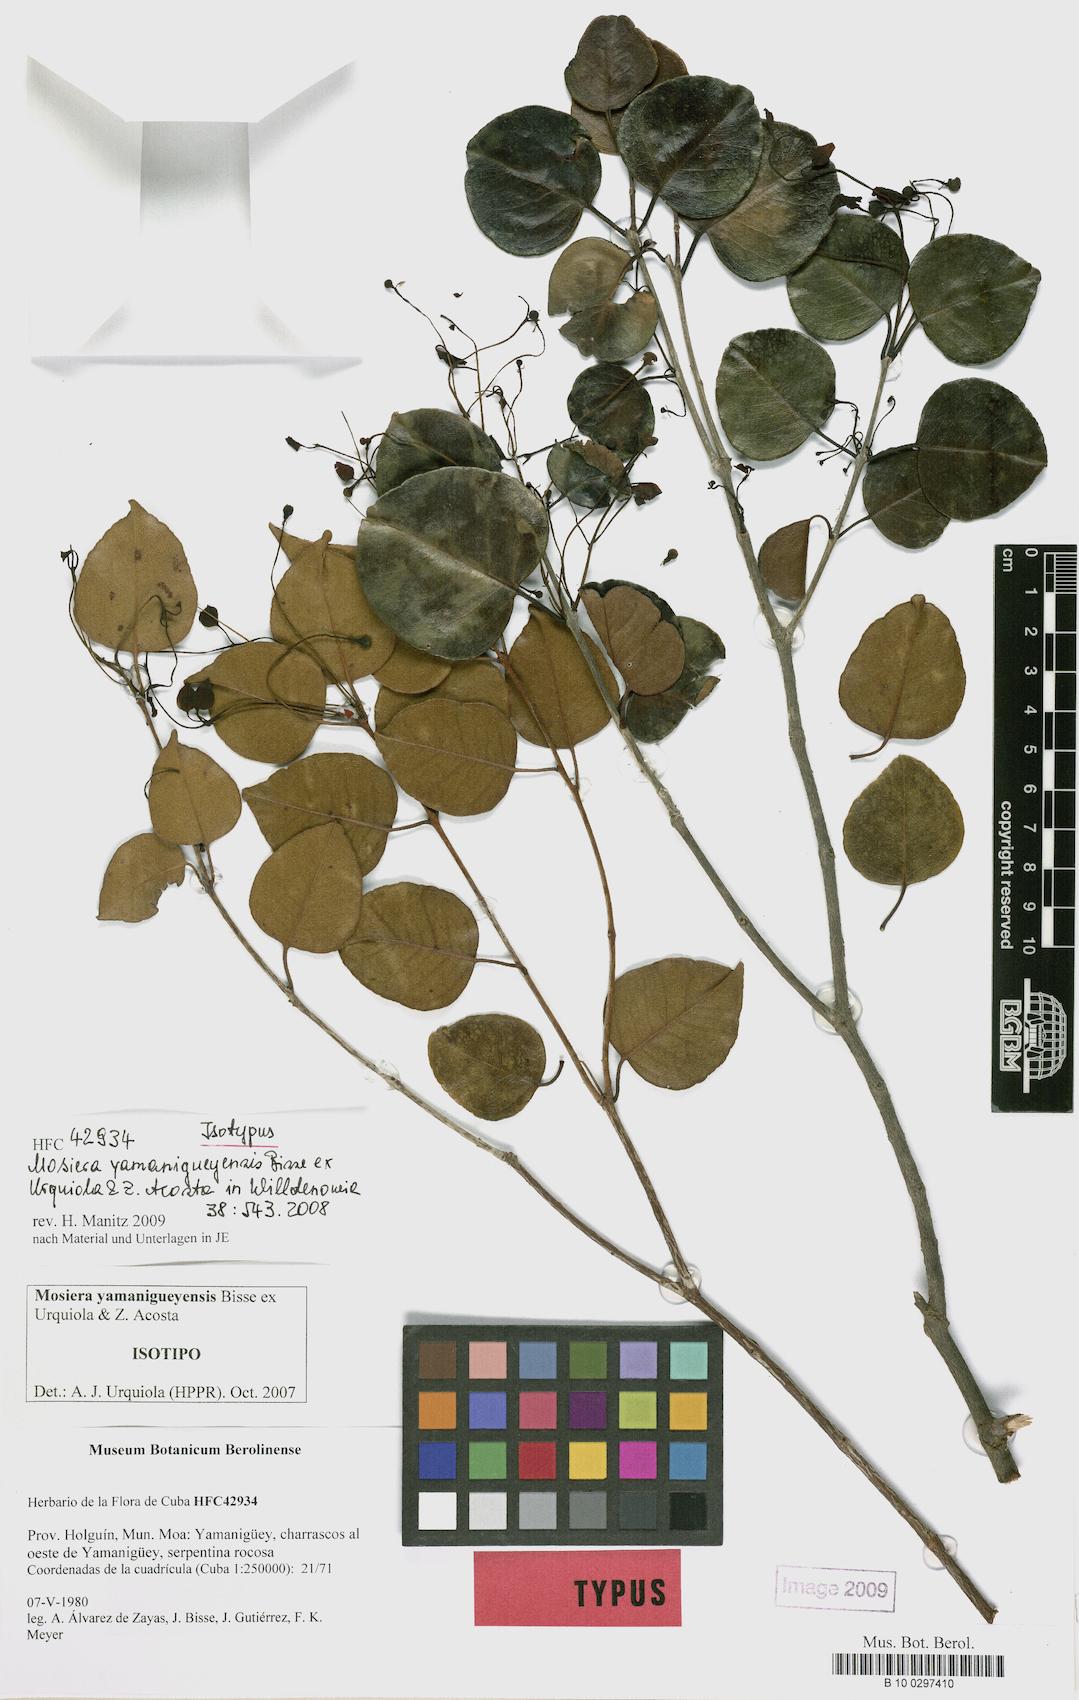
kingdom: Plantae
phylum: Tracheophyta
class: Magnoliopsida
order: Myrtales
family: Myrtaceae
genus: Mosiera
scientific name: Mosiera yamaniguensis
